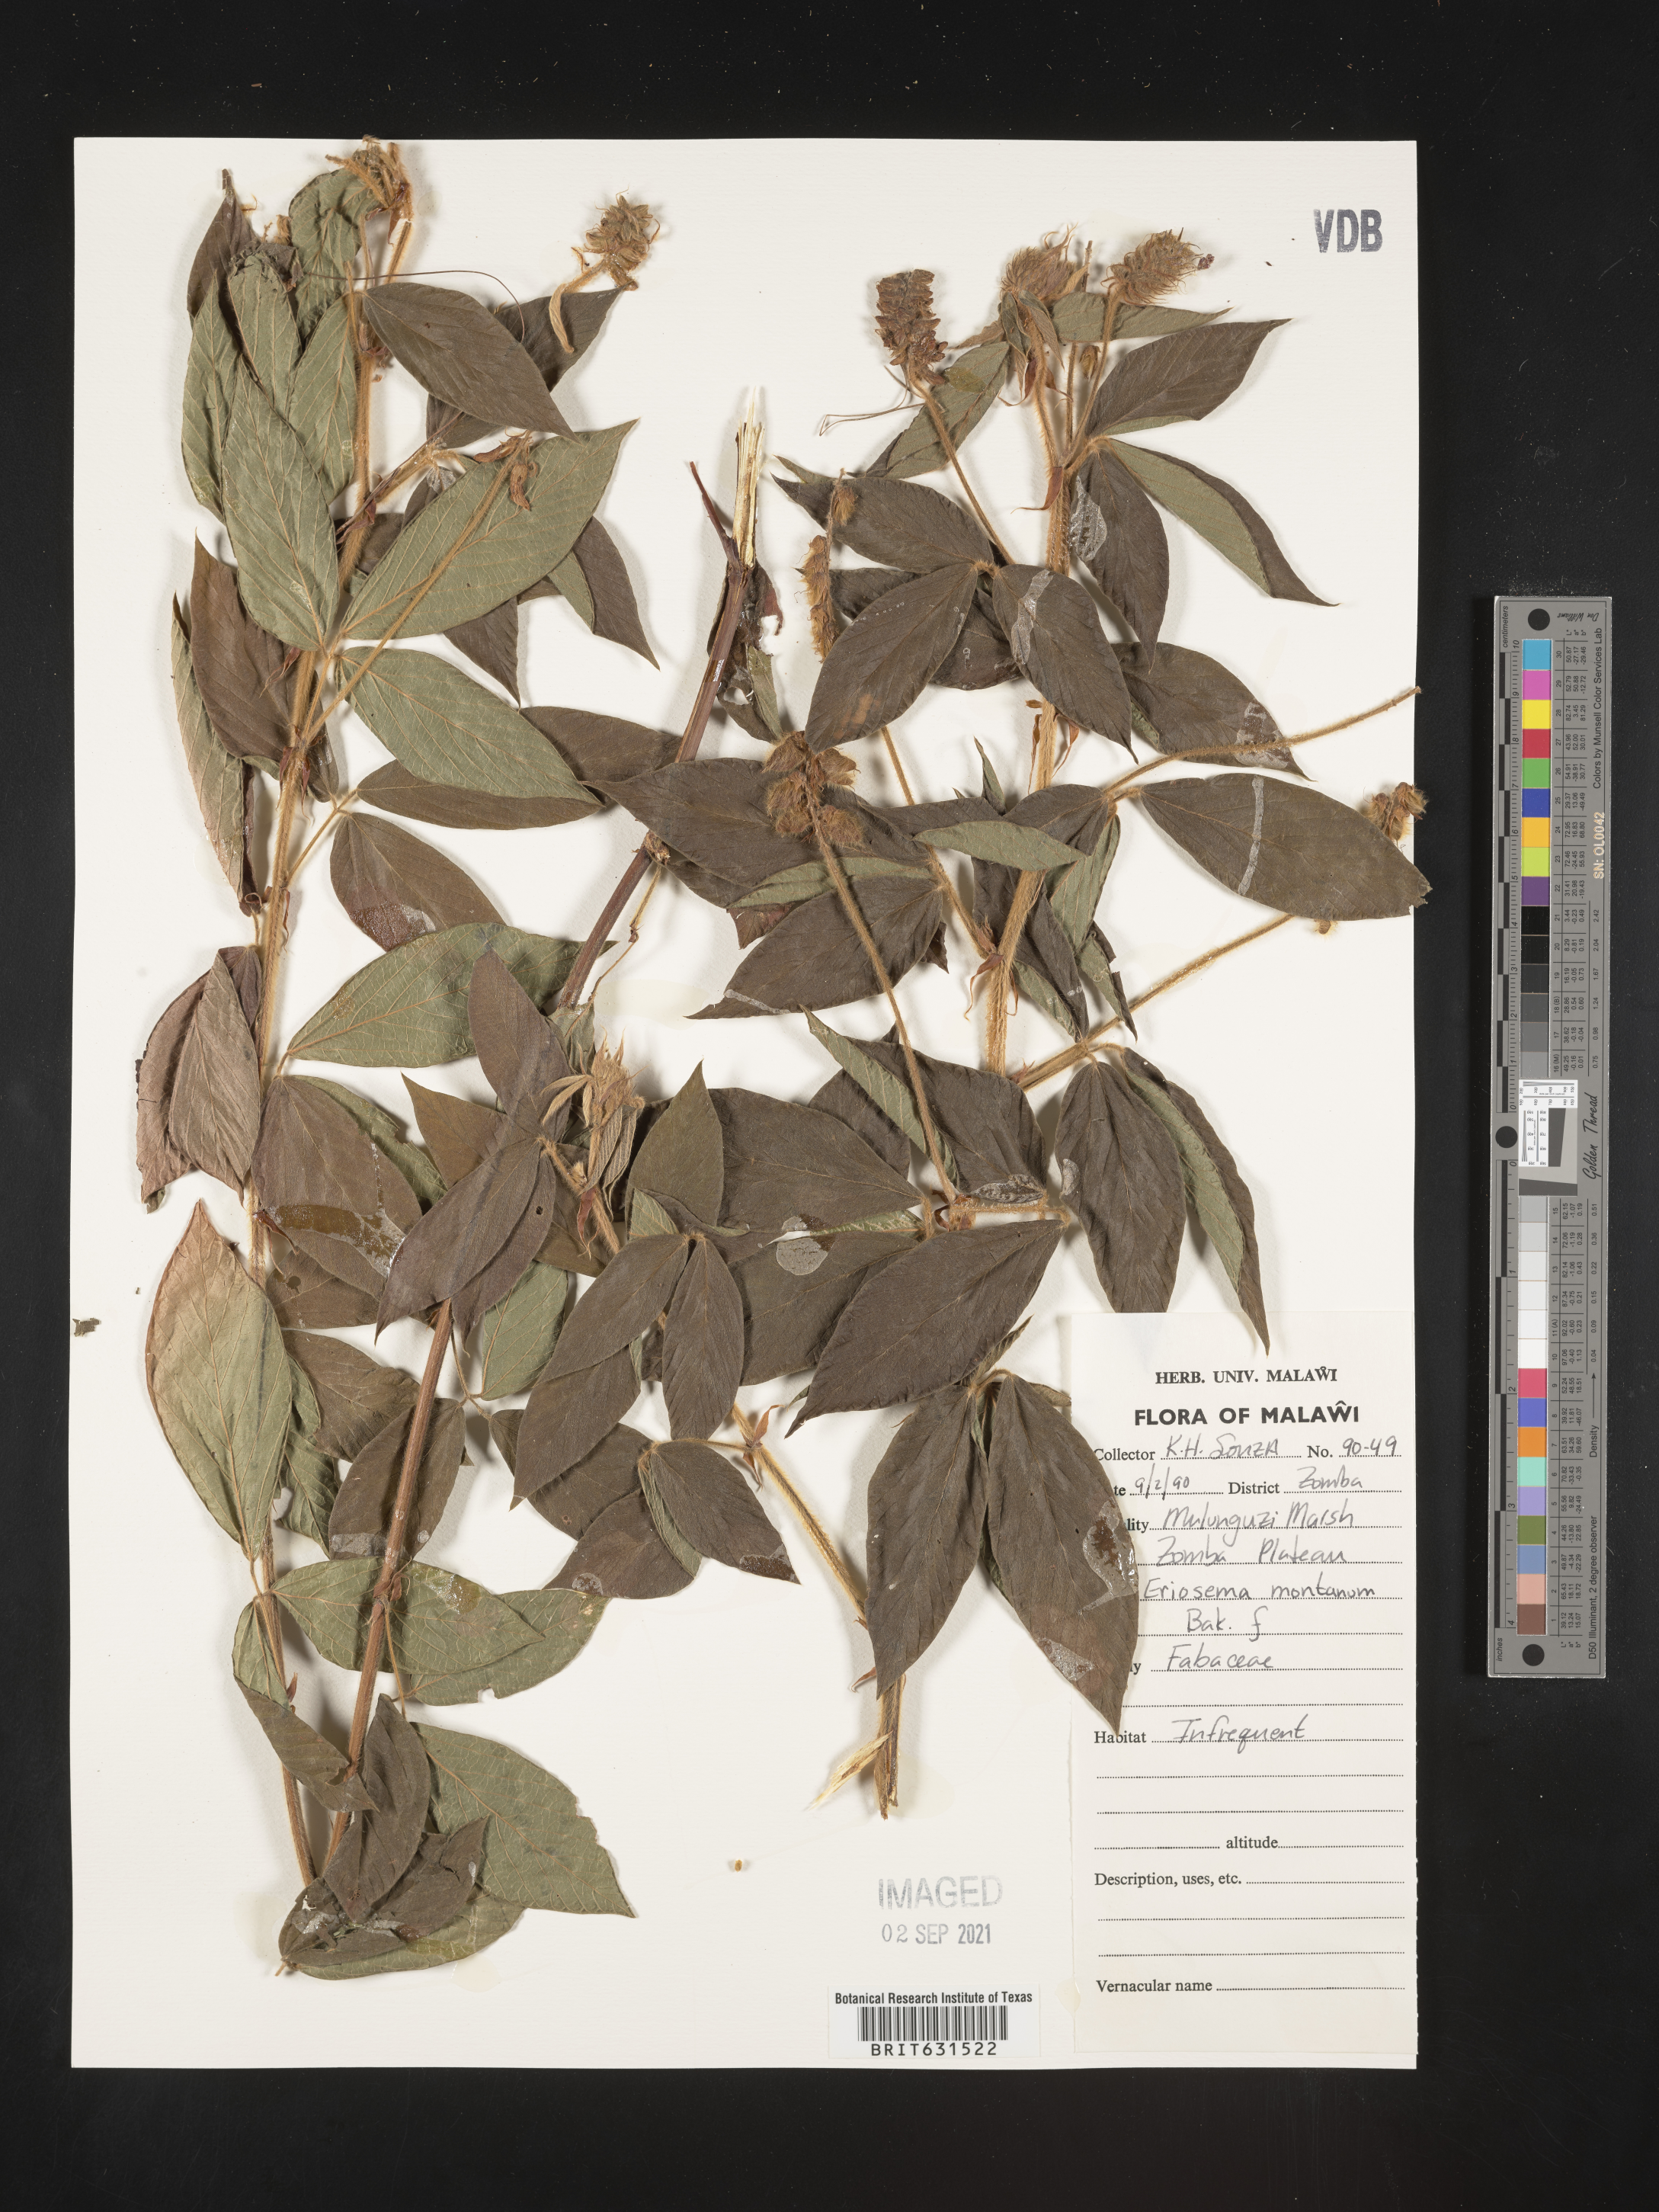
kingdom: Plantae
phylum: Tracheophyta
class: Magnoliopsida
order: Fabales
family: Fabaceae
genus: Eriosema
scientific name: Eriosema montanum
